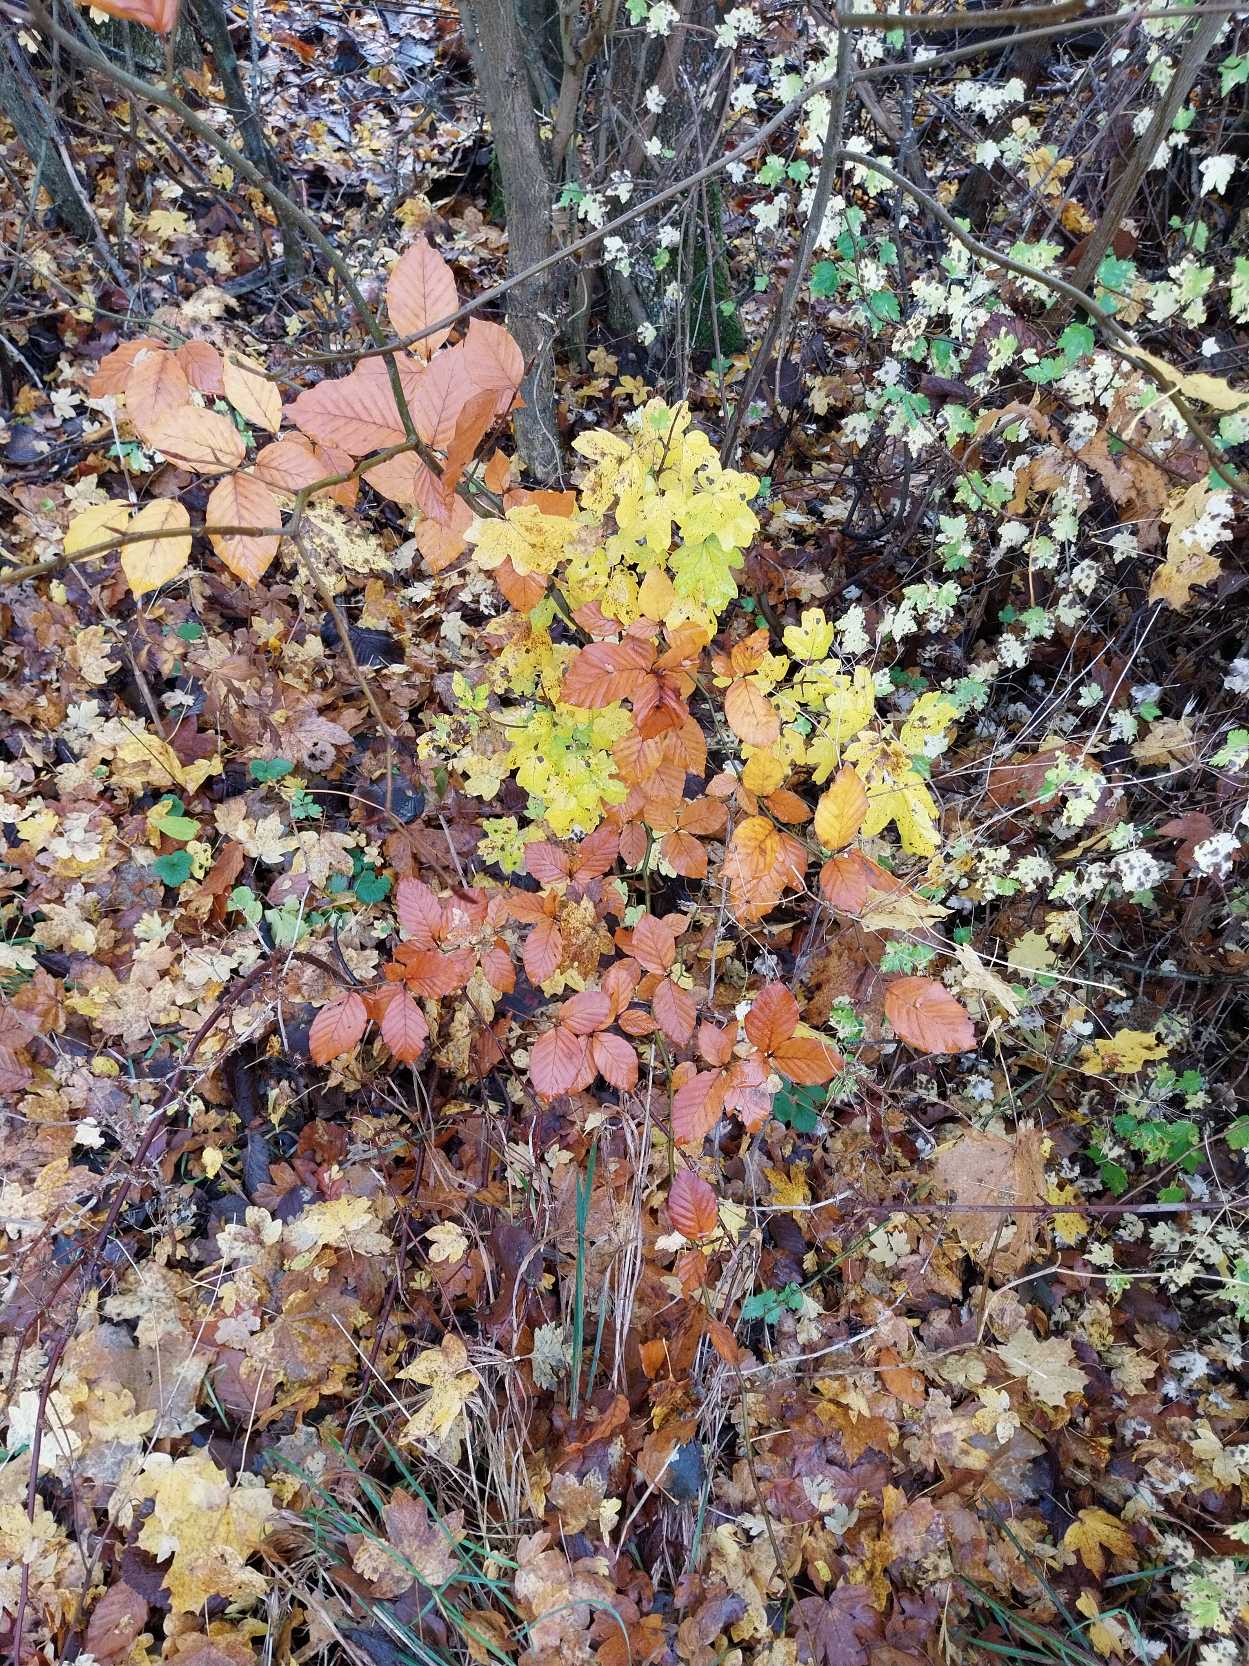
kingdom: Plantae
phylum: Tracheophyta
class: Magnoliopsida
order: Fagales
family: Fagaceae
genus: Fagus
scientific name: Fagus sylvatica
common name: Bøg
